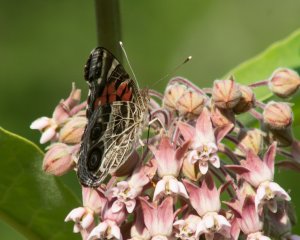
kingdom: Animalia
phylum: Arthropoda
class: Insecta
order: Lepidoptera
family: Nymphalidae
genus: Vanessa
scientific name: Vanessa virginiensis
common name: American Lady
